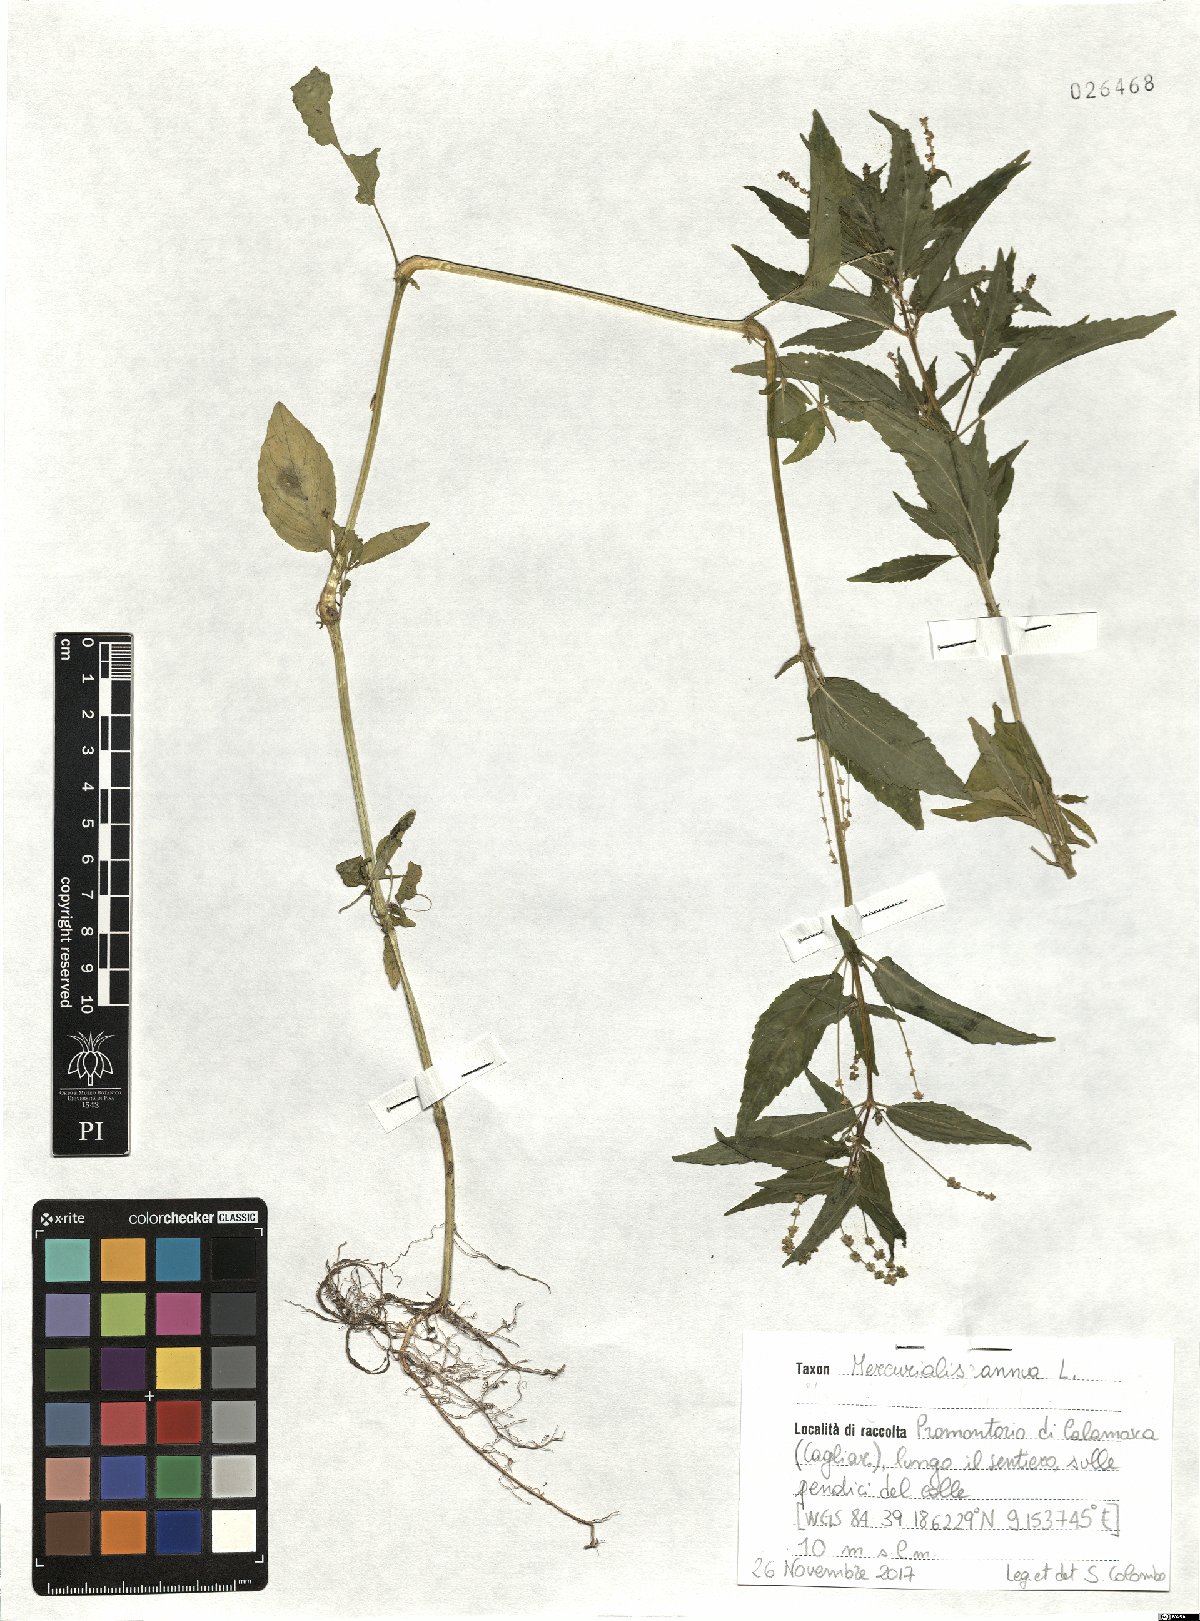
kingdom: Plantae
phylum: Tracheophyta
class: Magnoliopsida
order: Malpighiales
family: Euphorbiaceae
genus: Mercurialis
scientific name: Mercurialis annua
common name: Annual mercury
